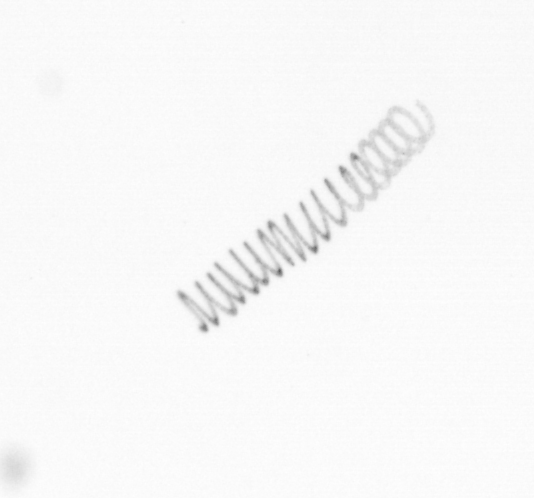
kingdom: Chromista
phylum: Ochrophyta
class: Bacillariophyceae
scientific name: Bacillariophyceae
